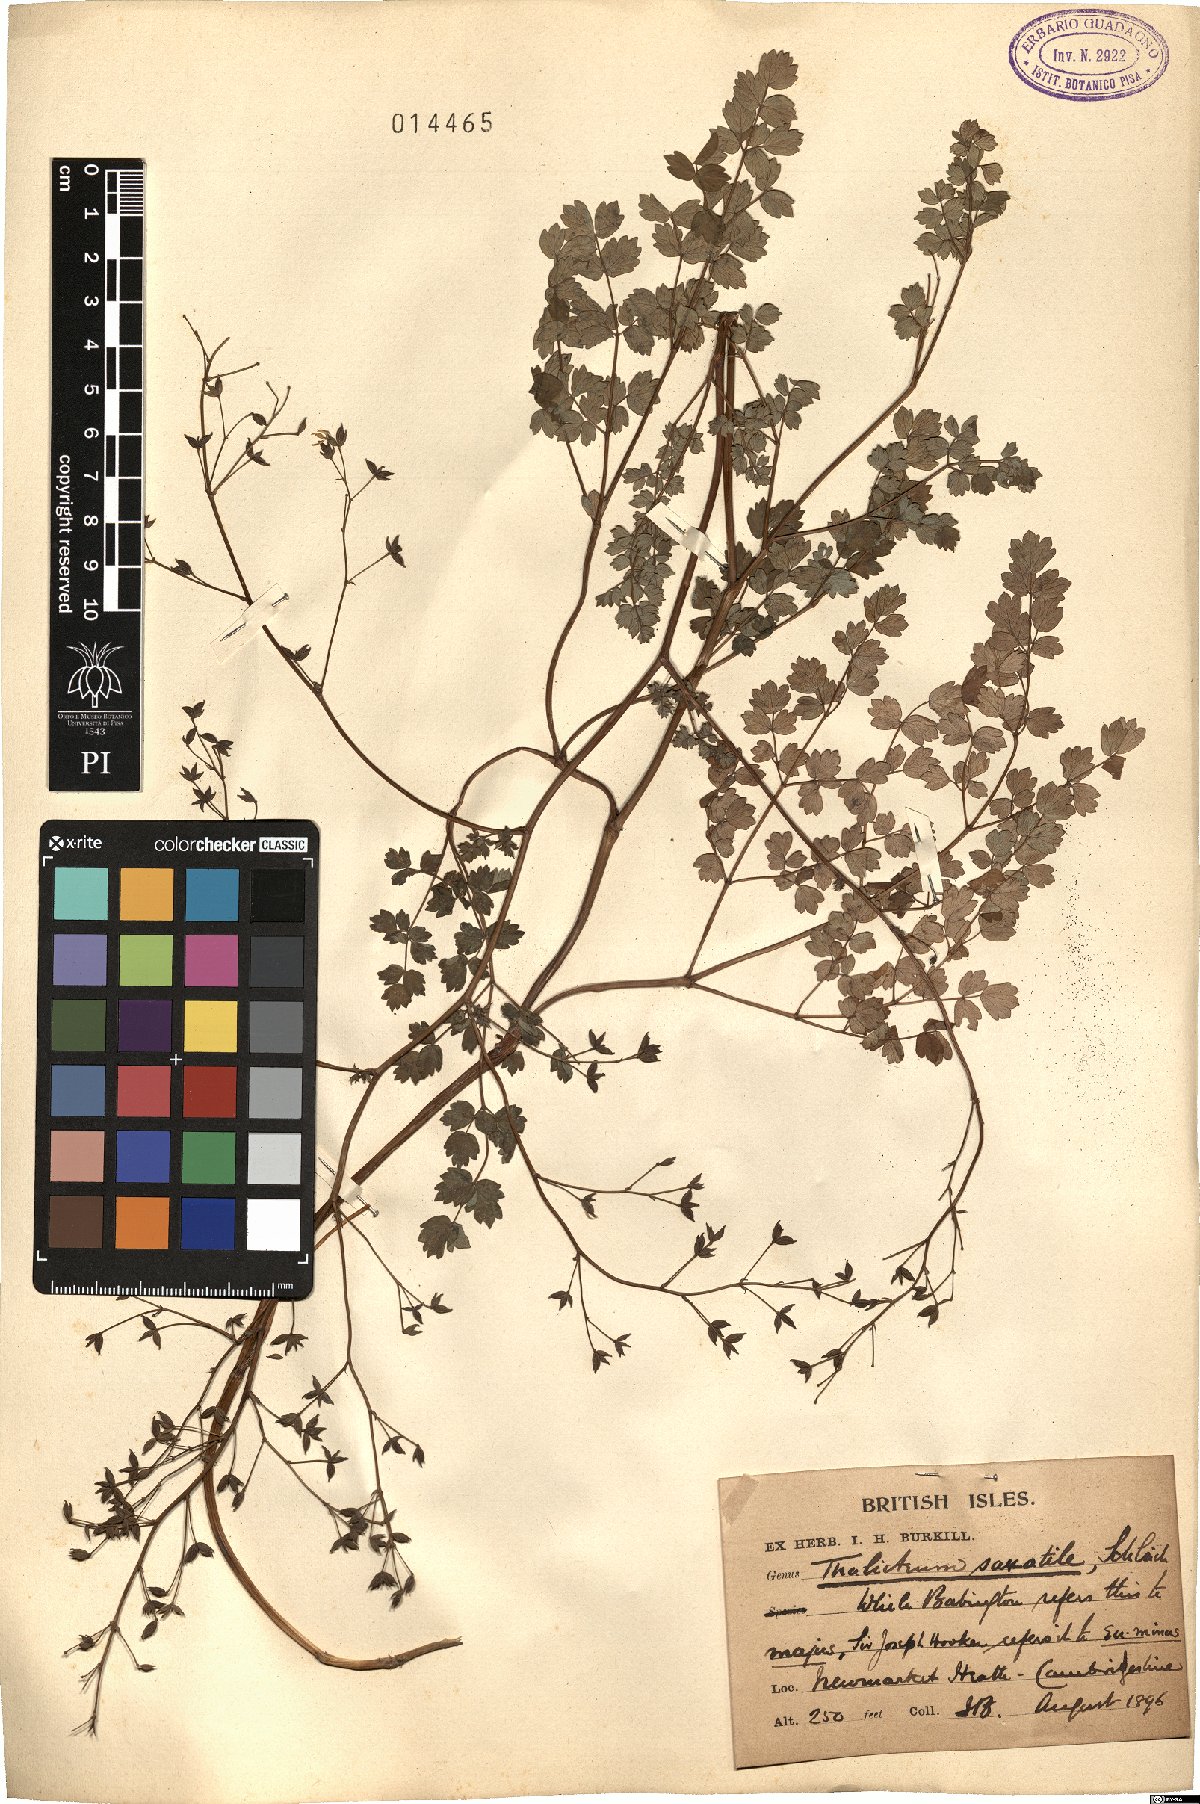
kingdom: Plantae
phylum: Tracheophyta
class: Magnoliopsida
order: Ranunculales
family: Ranunculaceae
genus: Thalictrum
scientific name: Thalictrum minus
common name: Lesser meadow-rue
